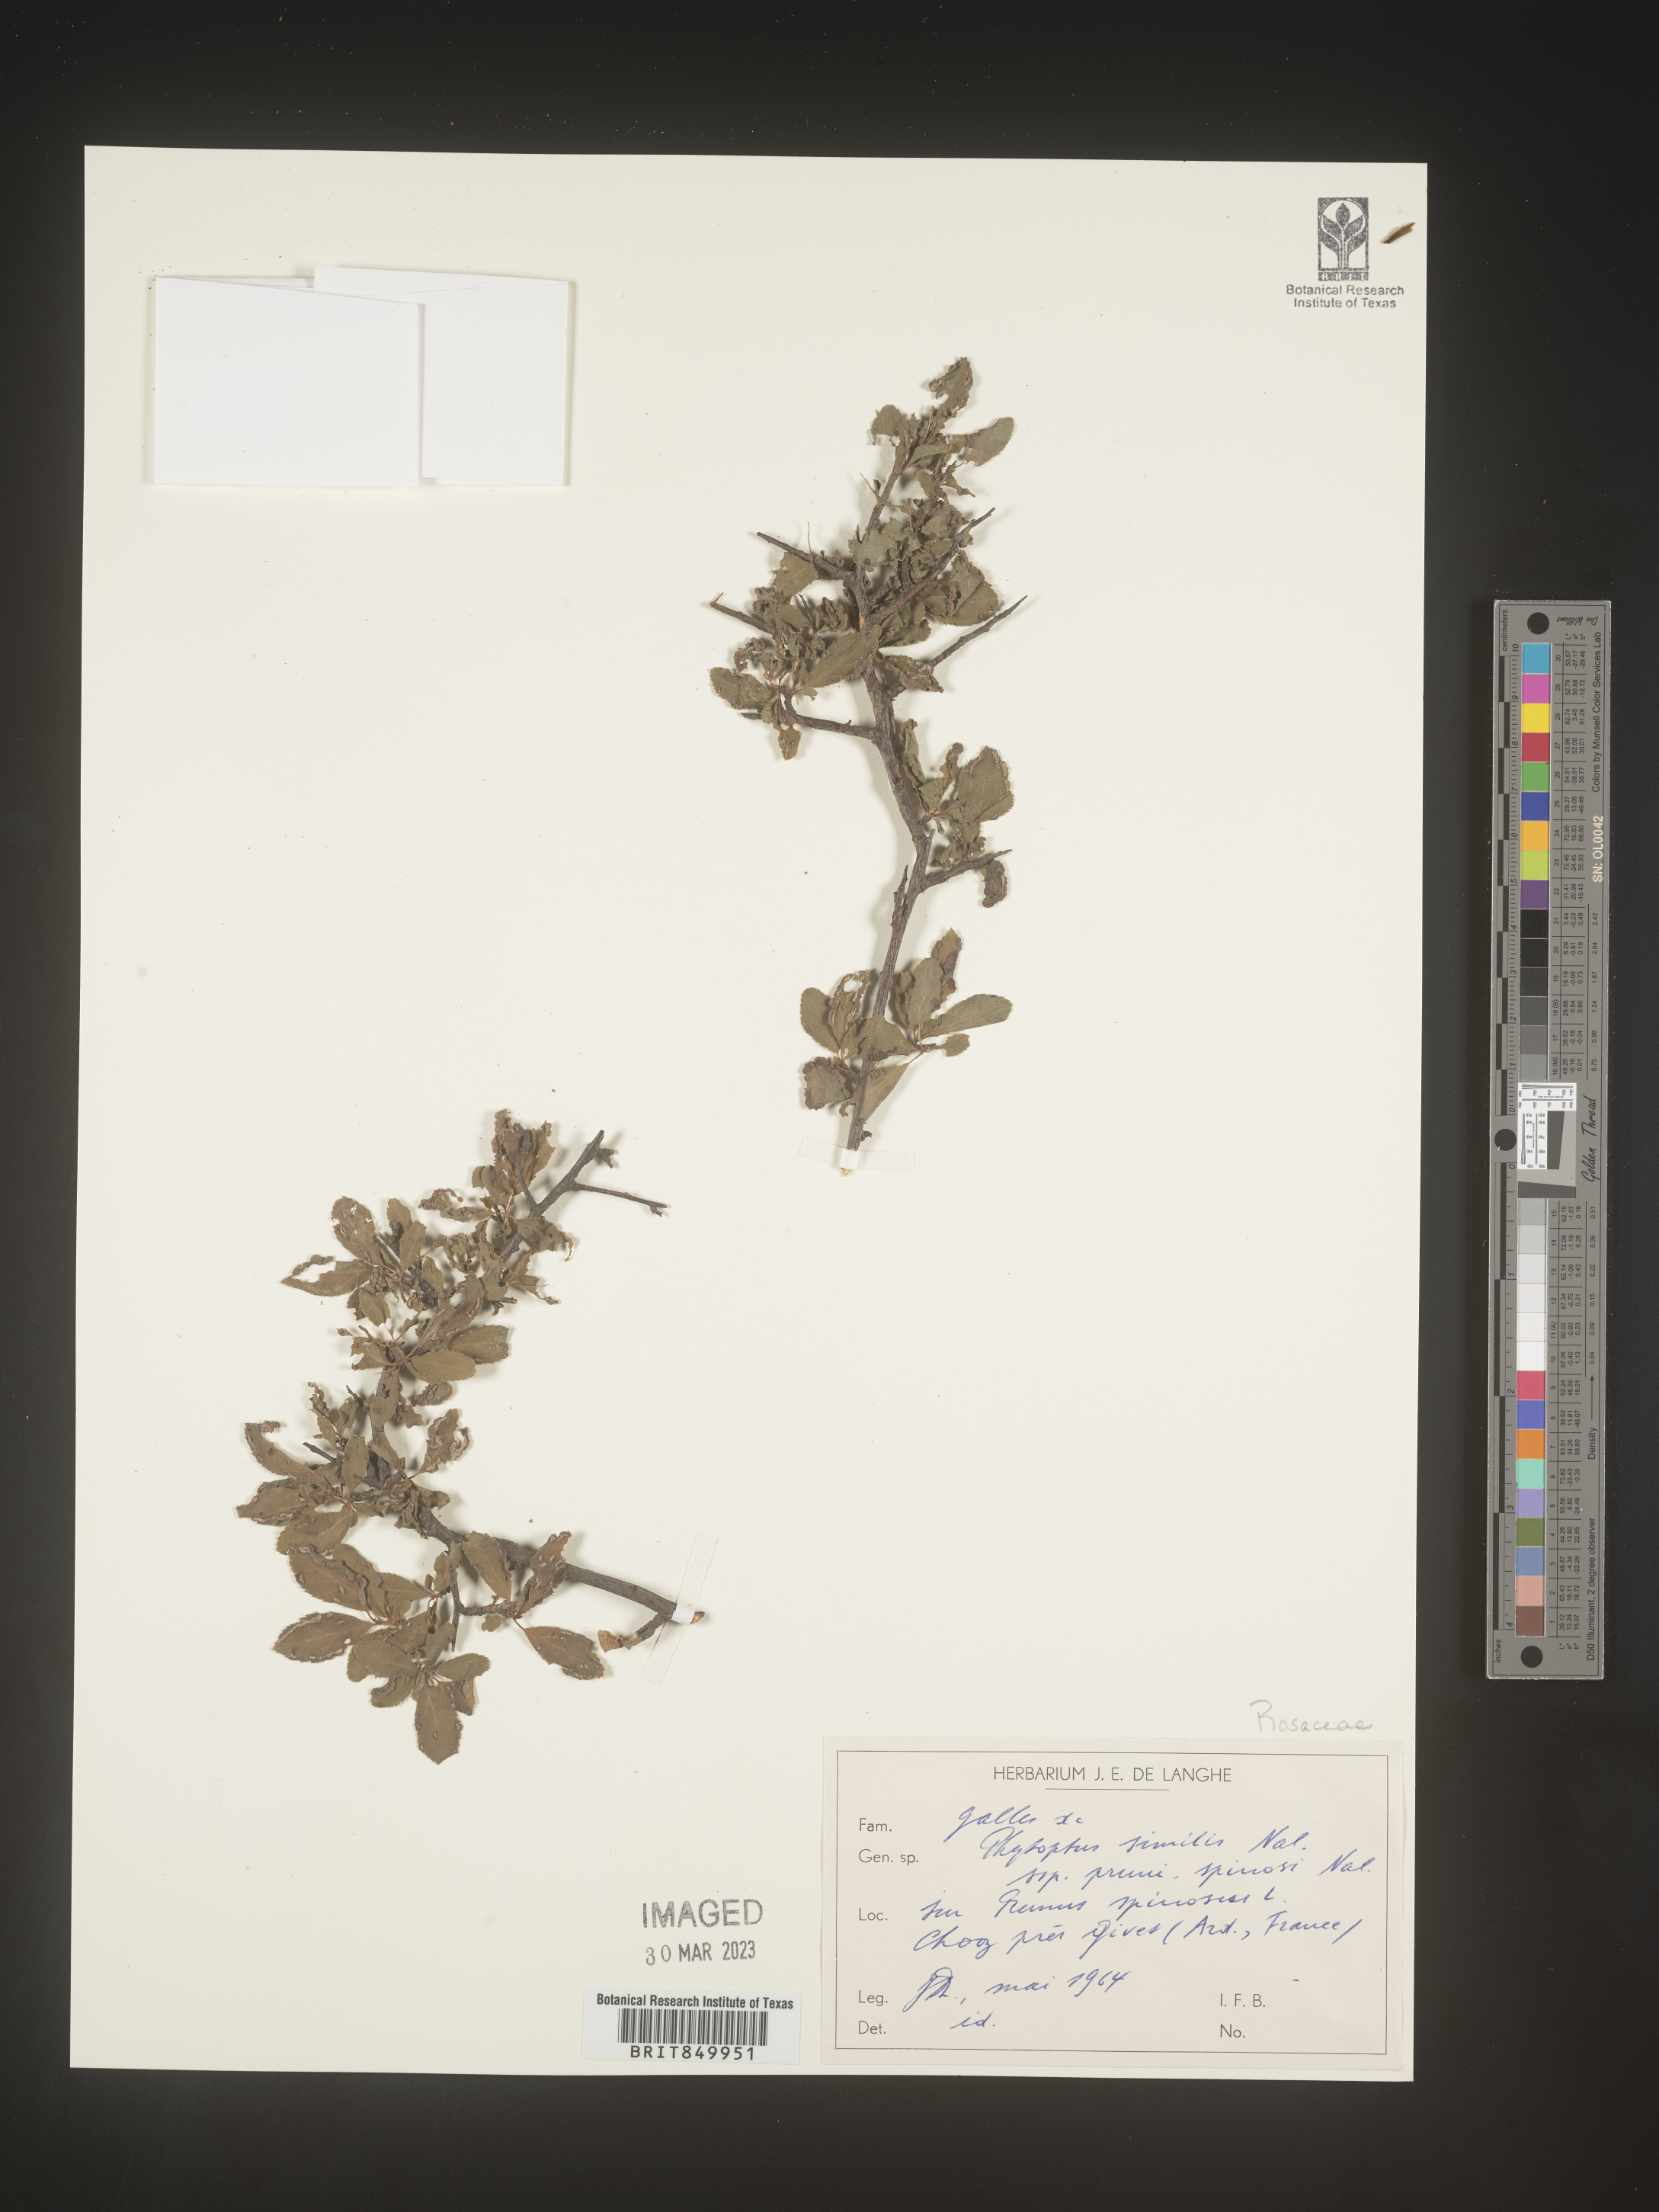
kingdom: Plantae
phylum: Tracheophyta
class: Magnoliopsida
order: Rosales
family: Rosaceae
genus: Prunus
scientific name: Prunus
